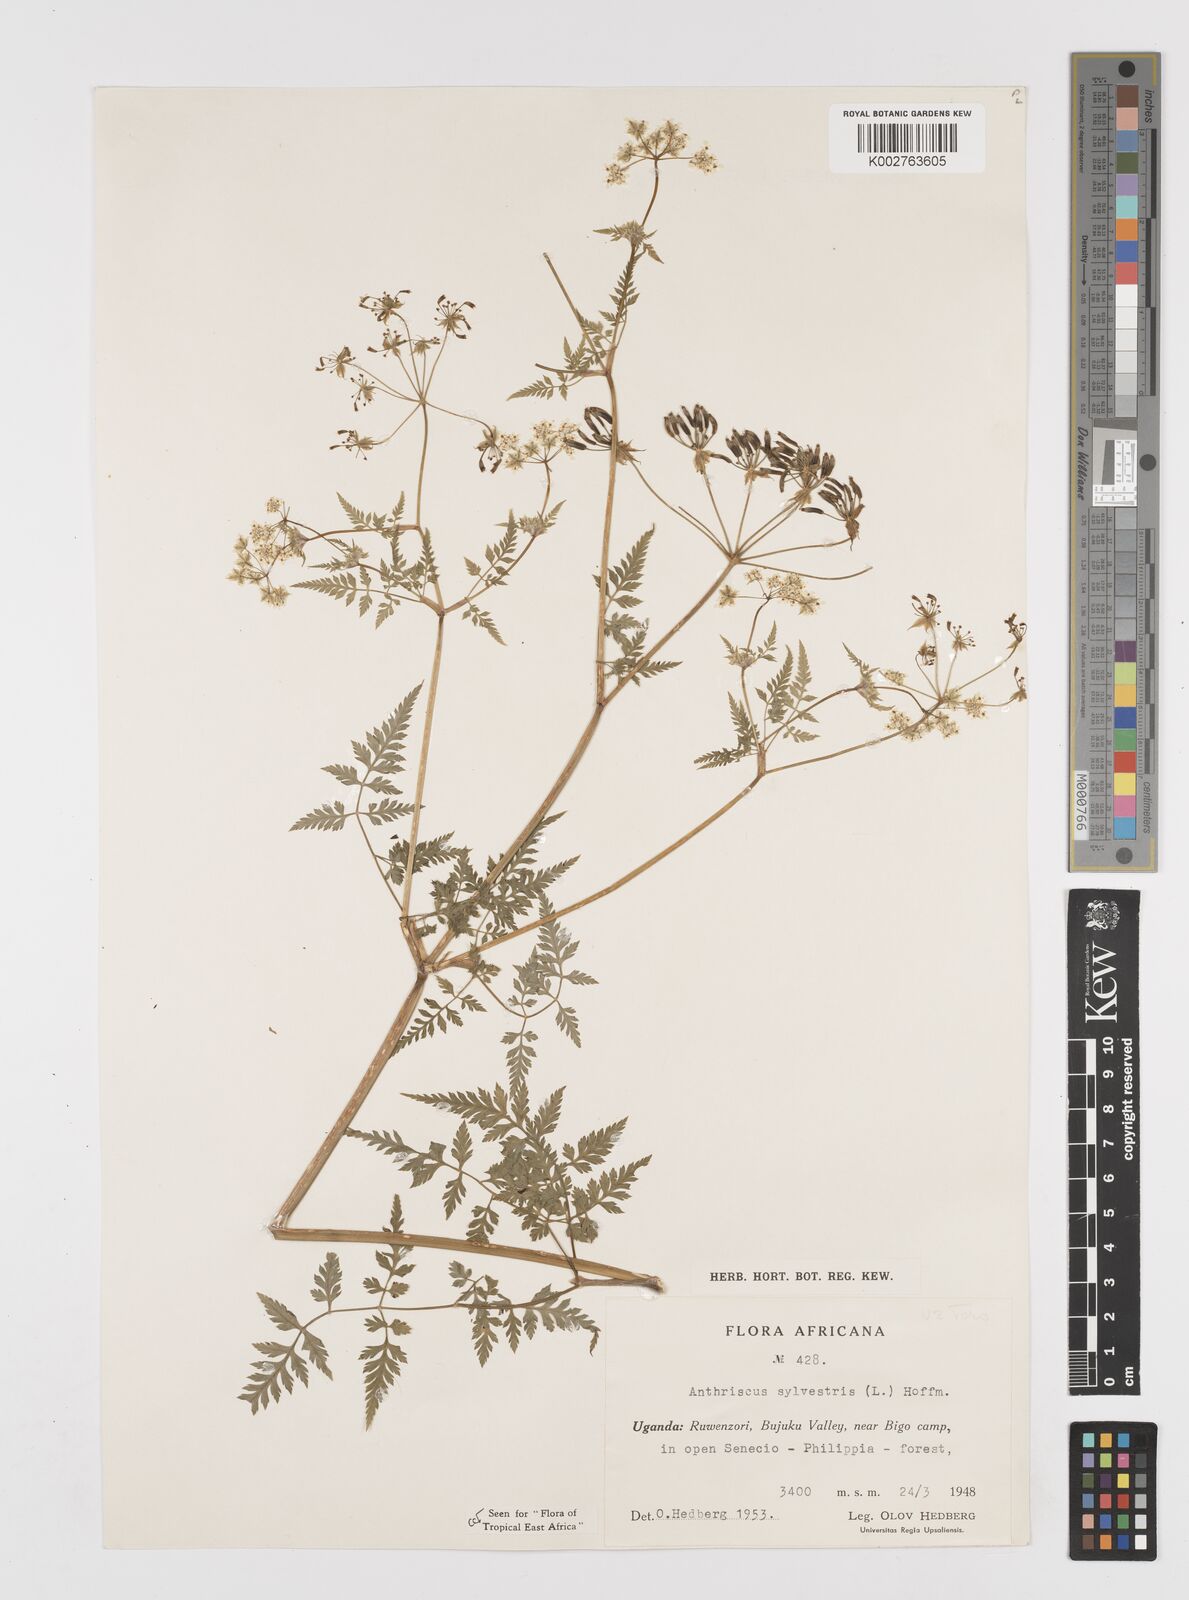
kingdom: Plantae
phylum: Tracheophyta
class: Magnoliopsida
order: Apiales
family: Apiaceae
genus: Anthriscus
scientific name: Anthriscus sylvestris
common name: Cow parsley
